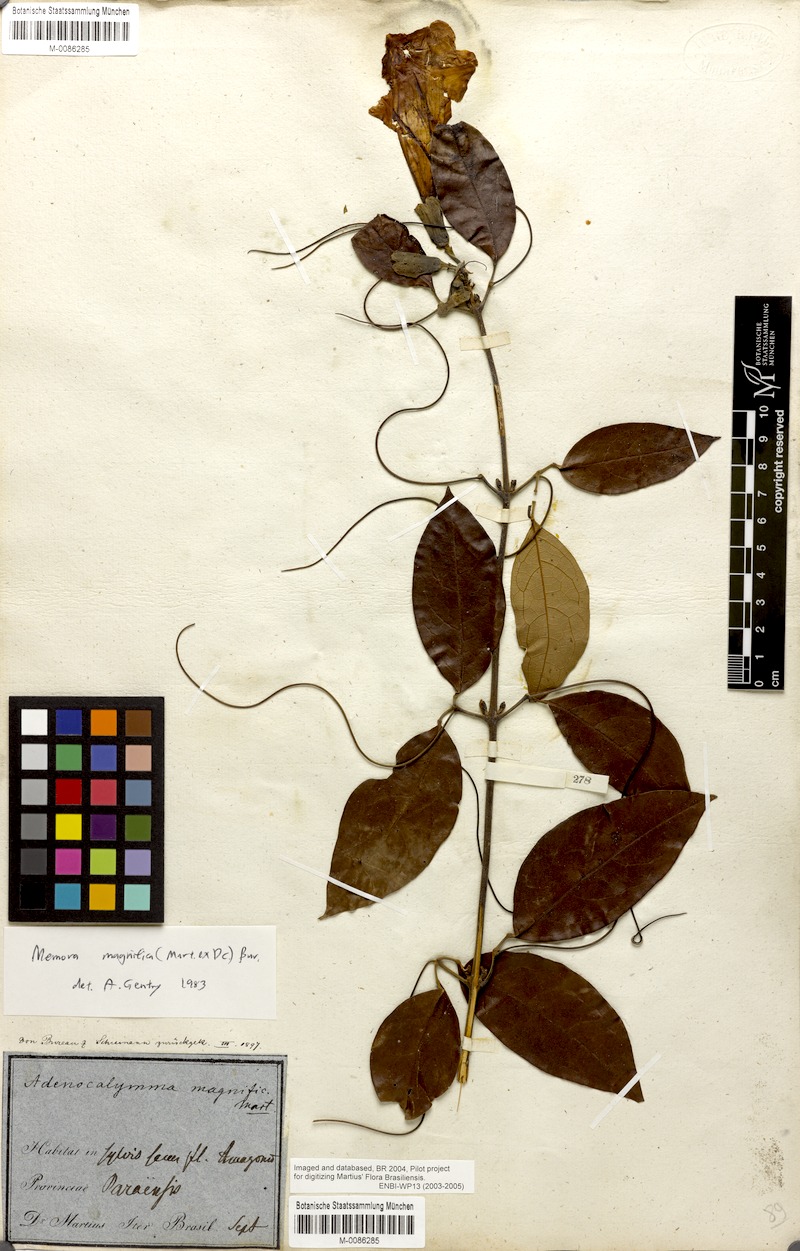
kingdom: Plantae
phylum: Tracheophyta
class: Magnoliopsida
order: Lamiales
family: Bignoniaceae
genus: Adenocalymma
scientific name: Adenocalymma magnificum
